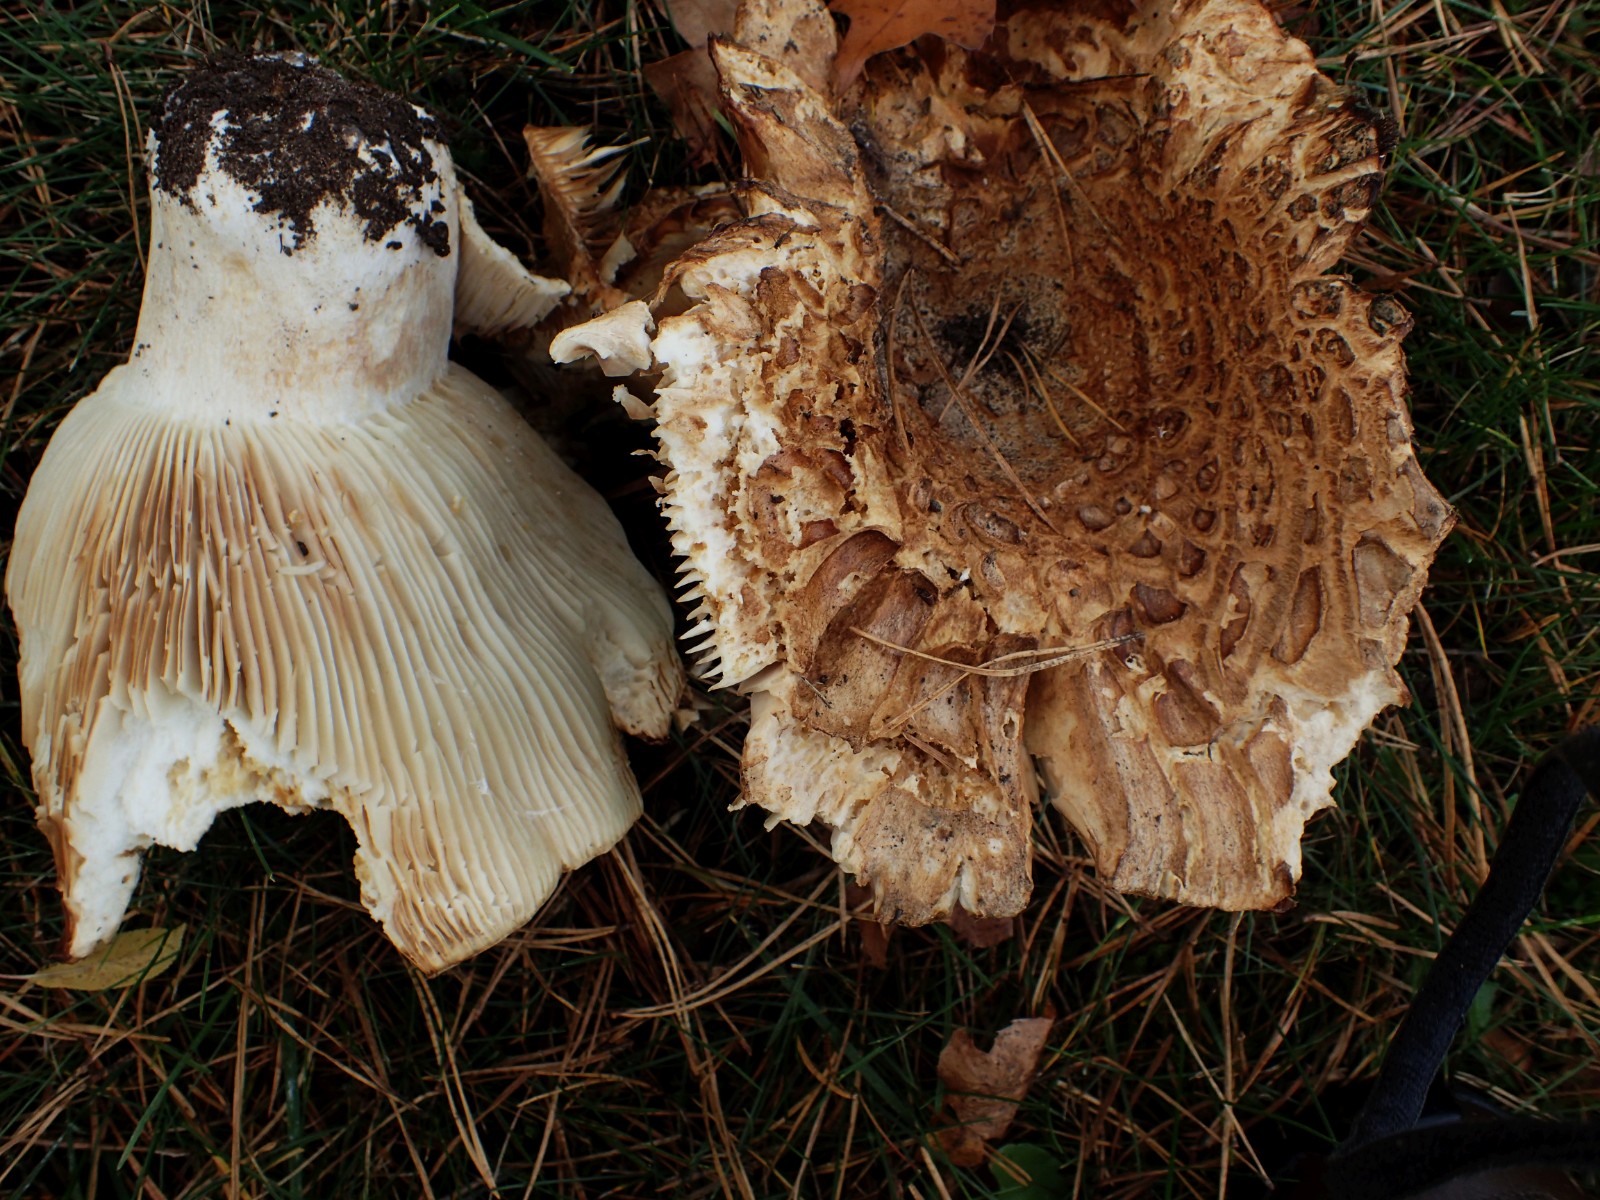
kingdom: Fungi
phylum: Basidiomycota
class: Agaricomycetes
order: Russulales
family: Russulaceae
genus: Russula
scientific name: Russula delica
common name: almindelig tragt-skørhat
